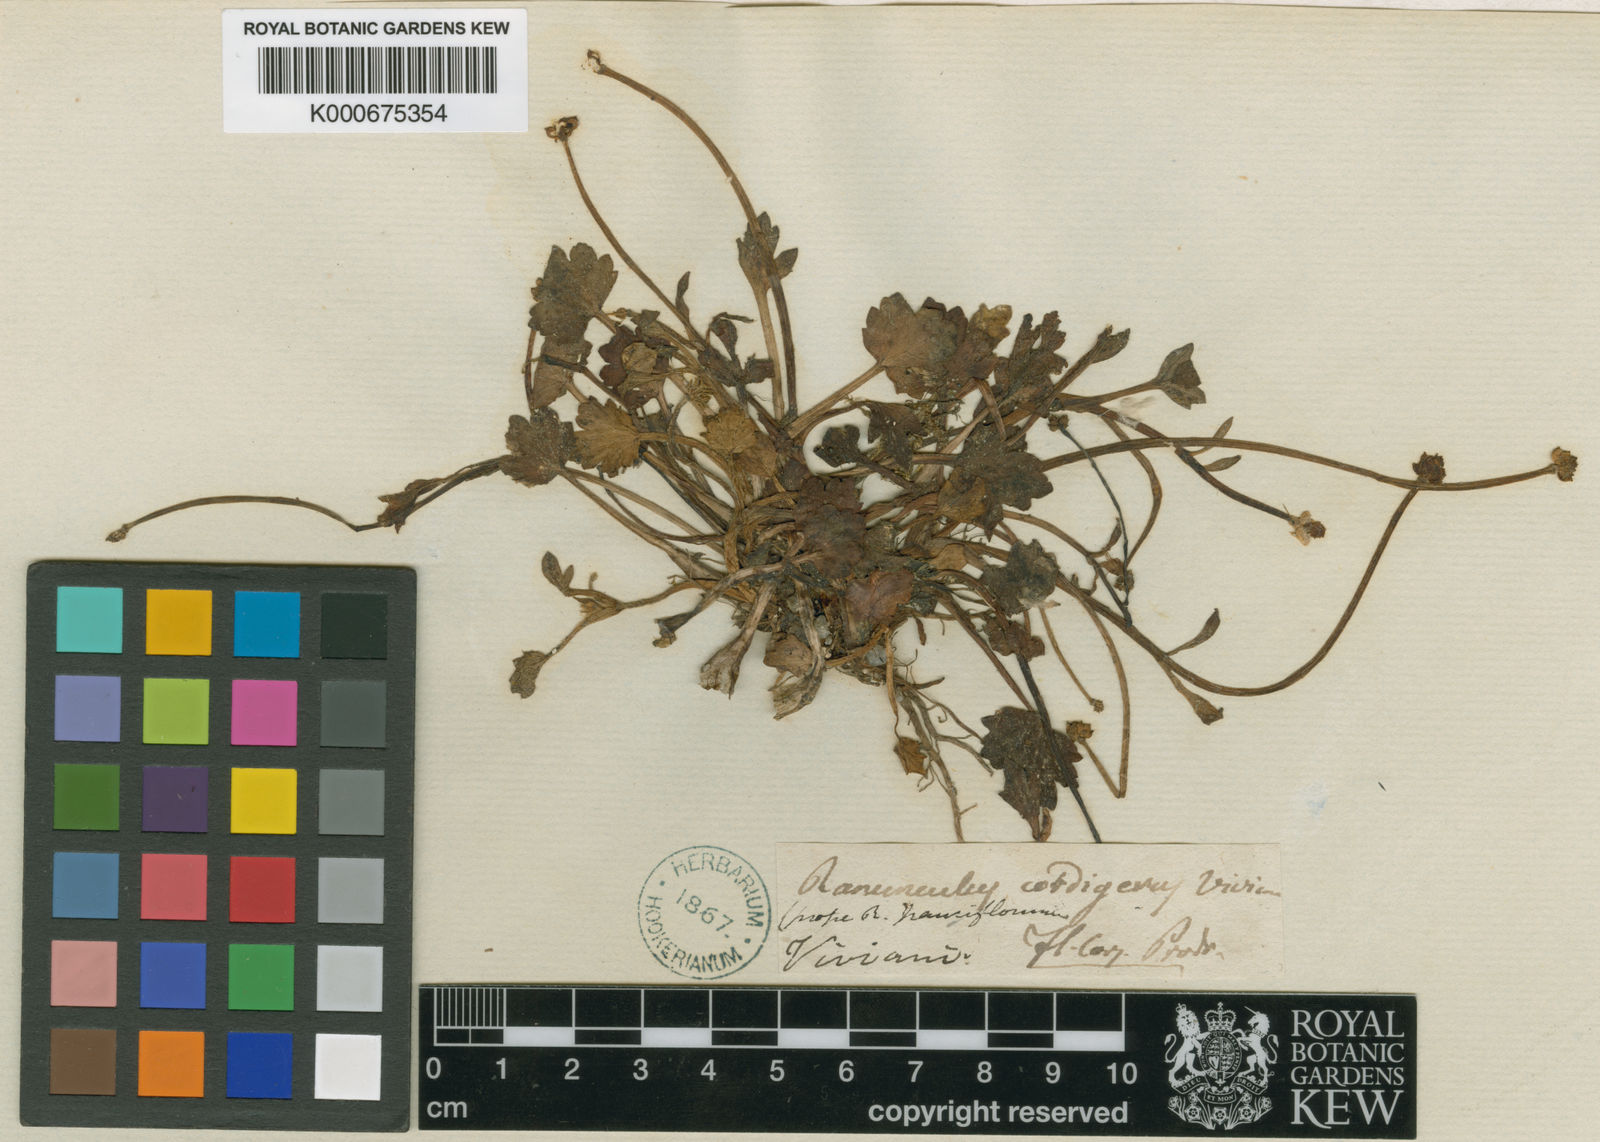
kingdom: Plantae
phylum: Tracheophyta
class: Magnoliopsida
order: Ranunculales
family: Ranunculaceae
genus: Ranunculus
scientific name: Ranunculus
